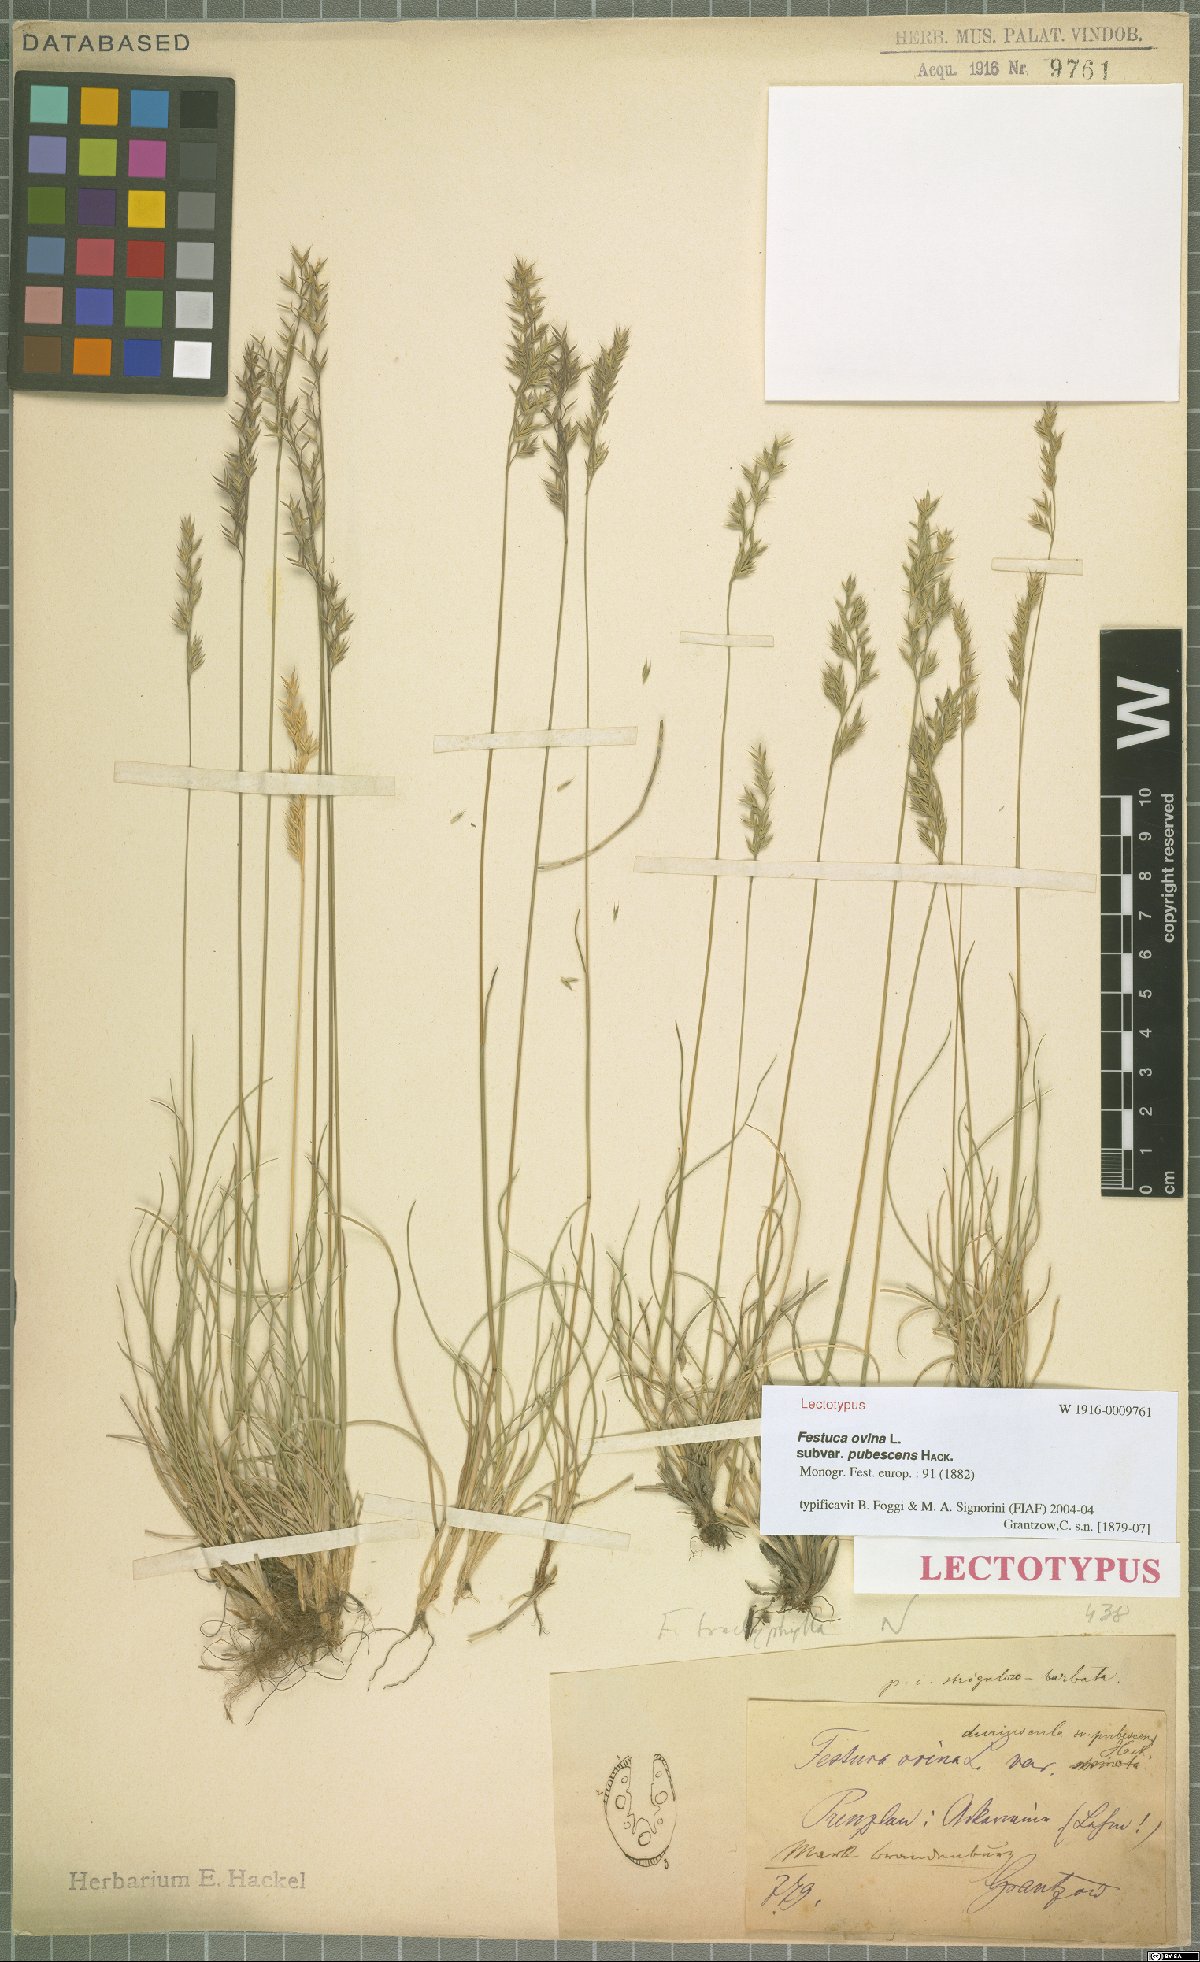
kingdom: Plantae
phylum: Tracheophyta
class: Liliopsida
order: Poales
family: Poaceae
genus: Festuca
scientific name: Festuca ovina
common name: Sheep fescue
